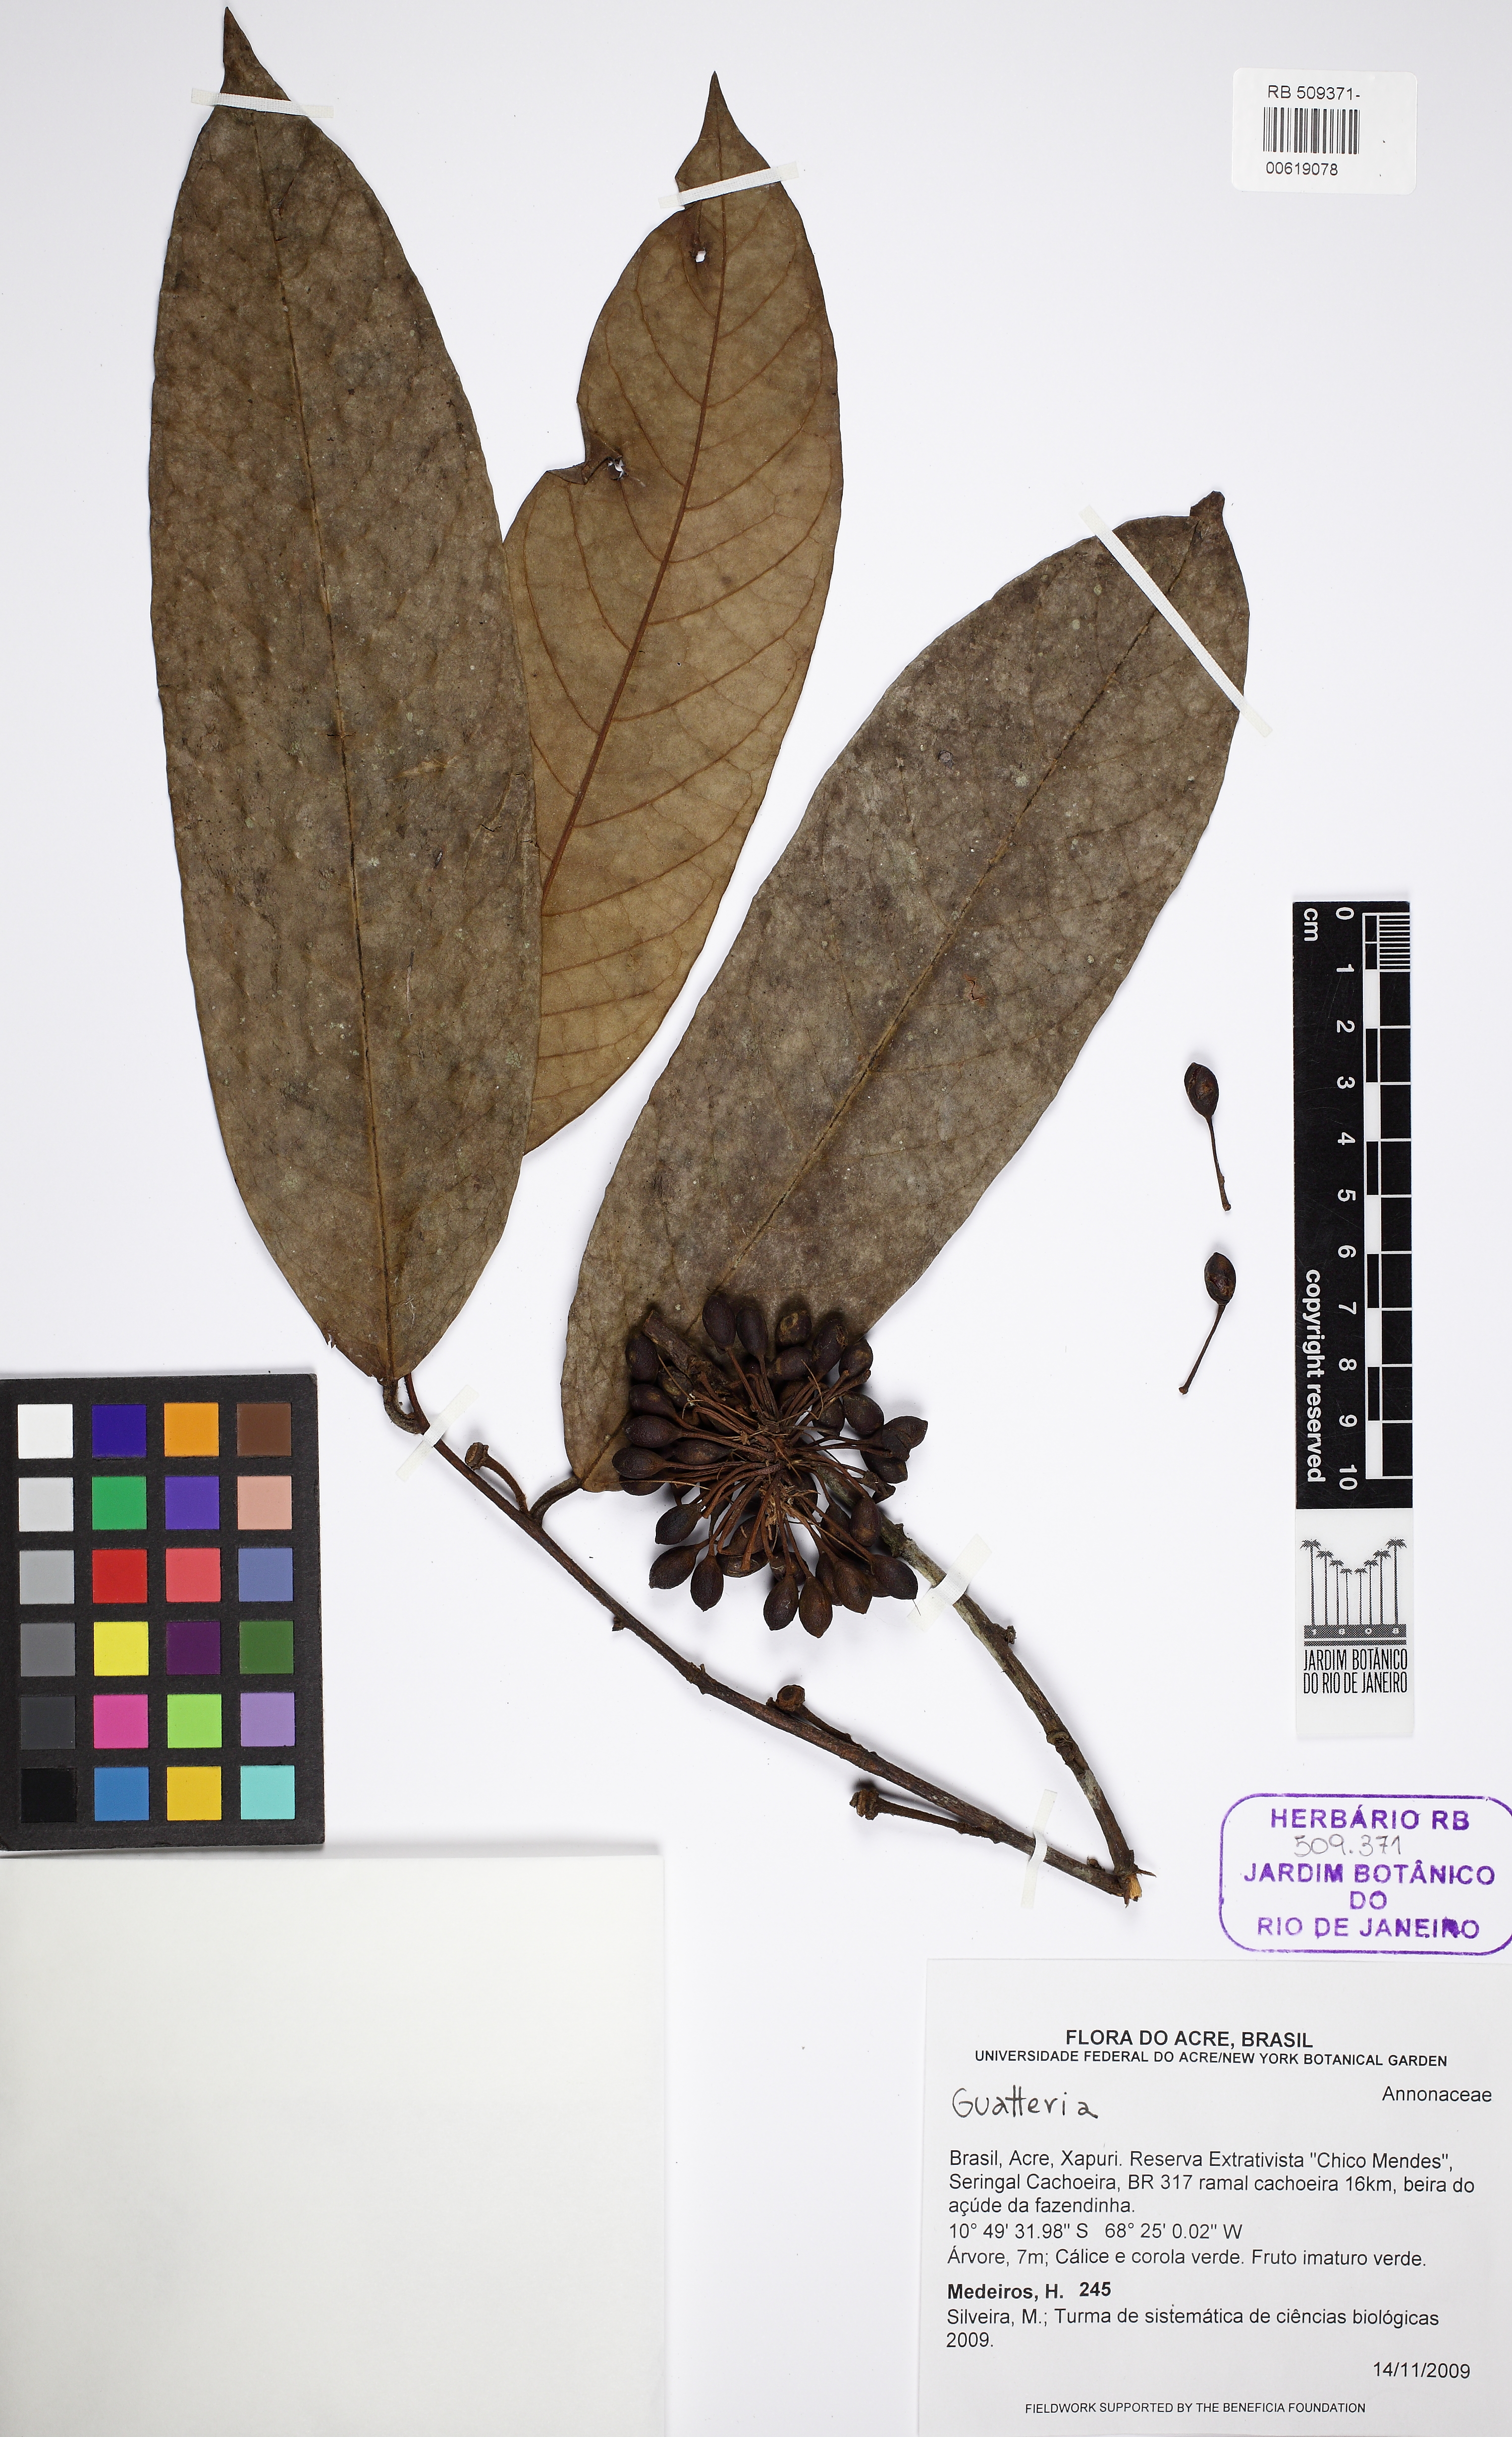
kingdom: Plantae
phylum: Tracheophyta
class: Magnoliopsida
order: Magnoliales
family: Annonaceae
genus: Guatteria
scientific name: Guatteria punctata
